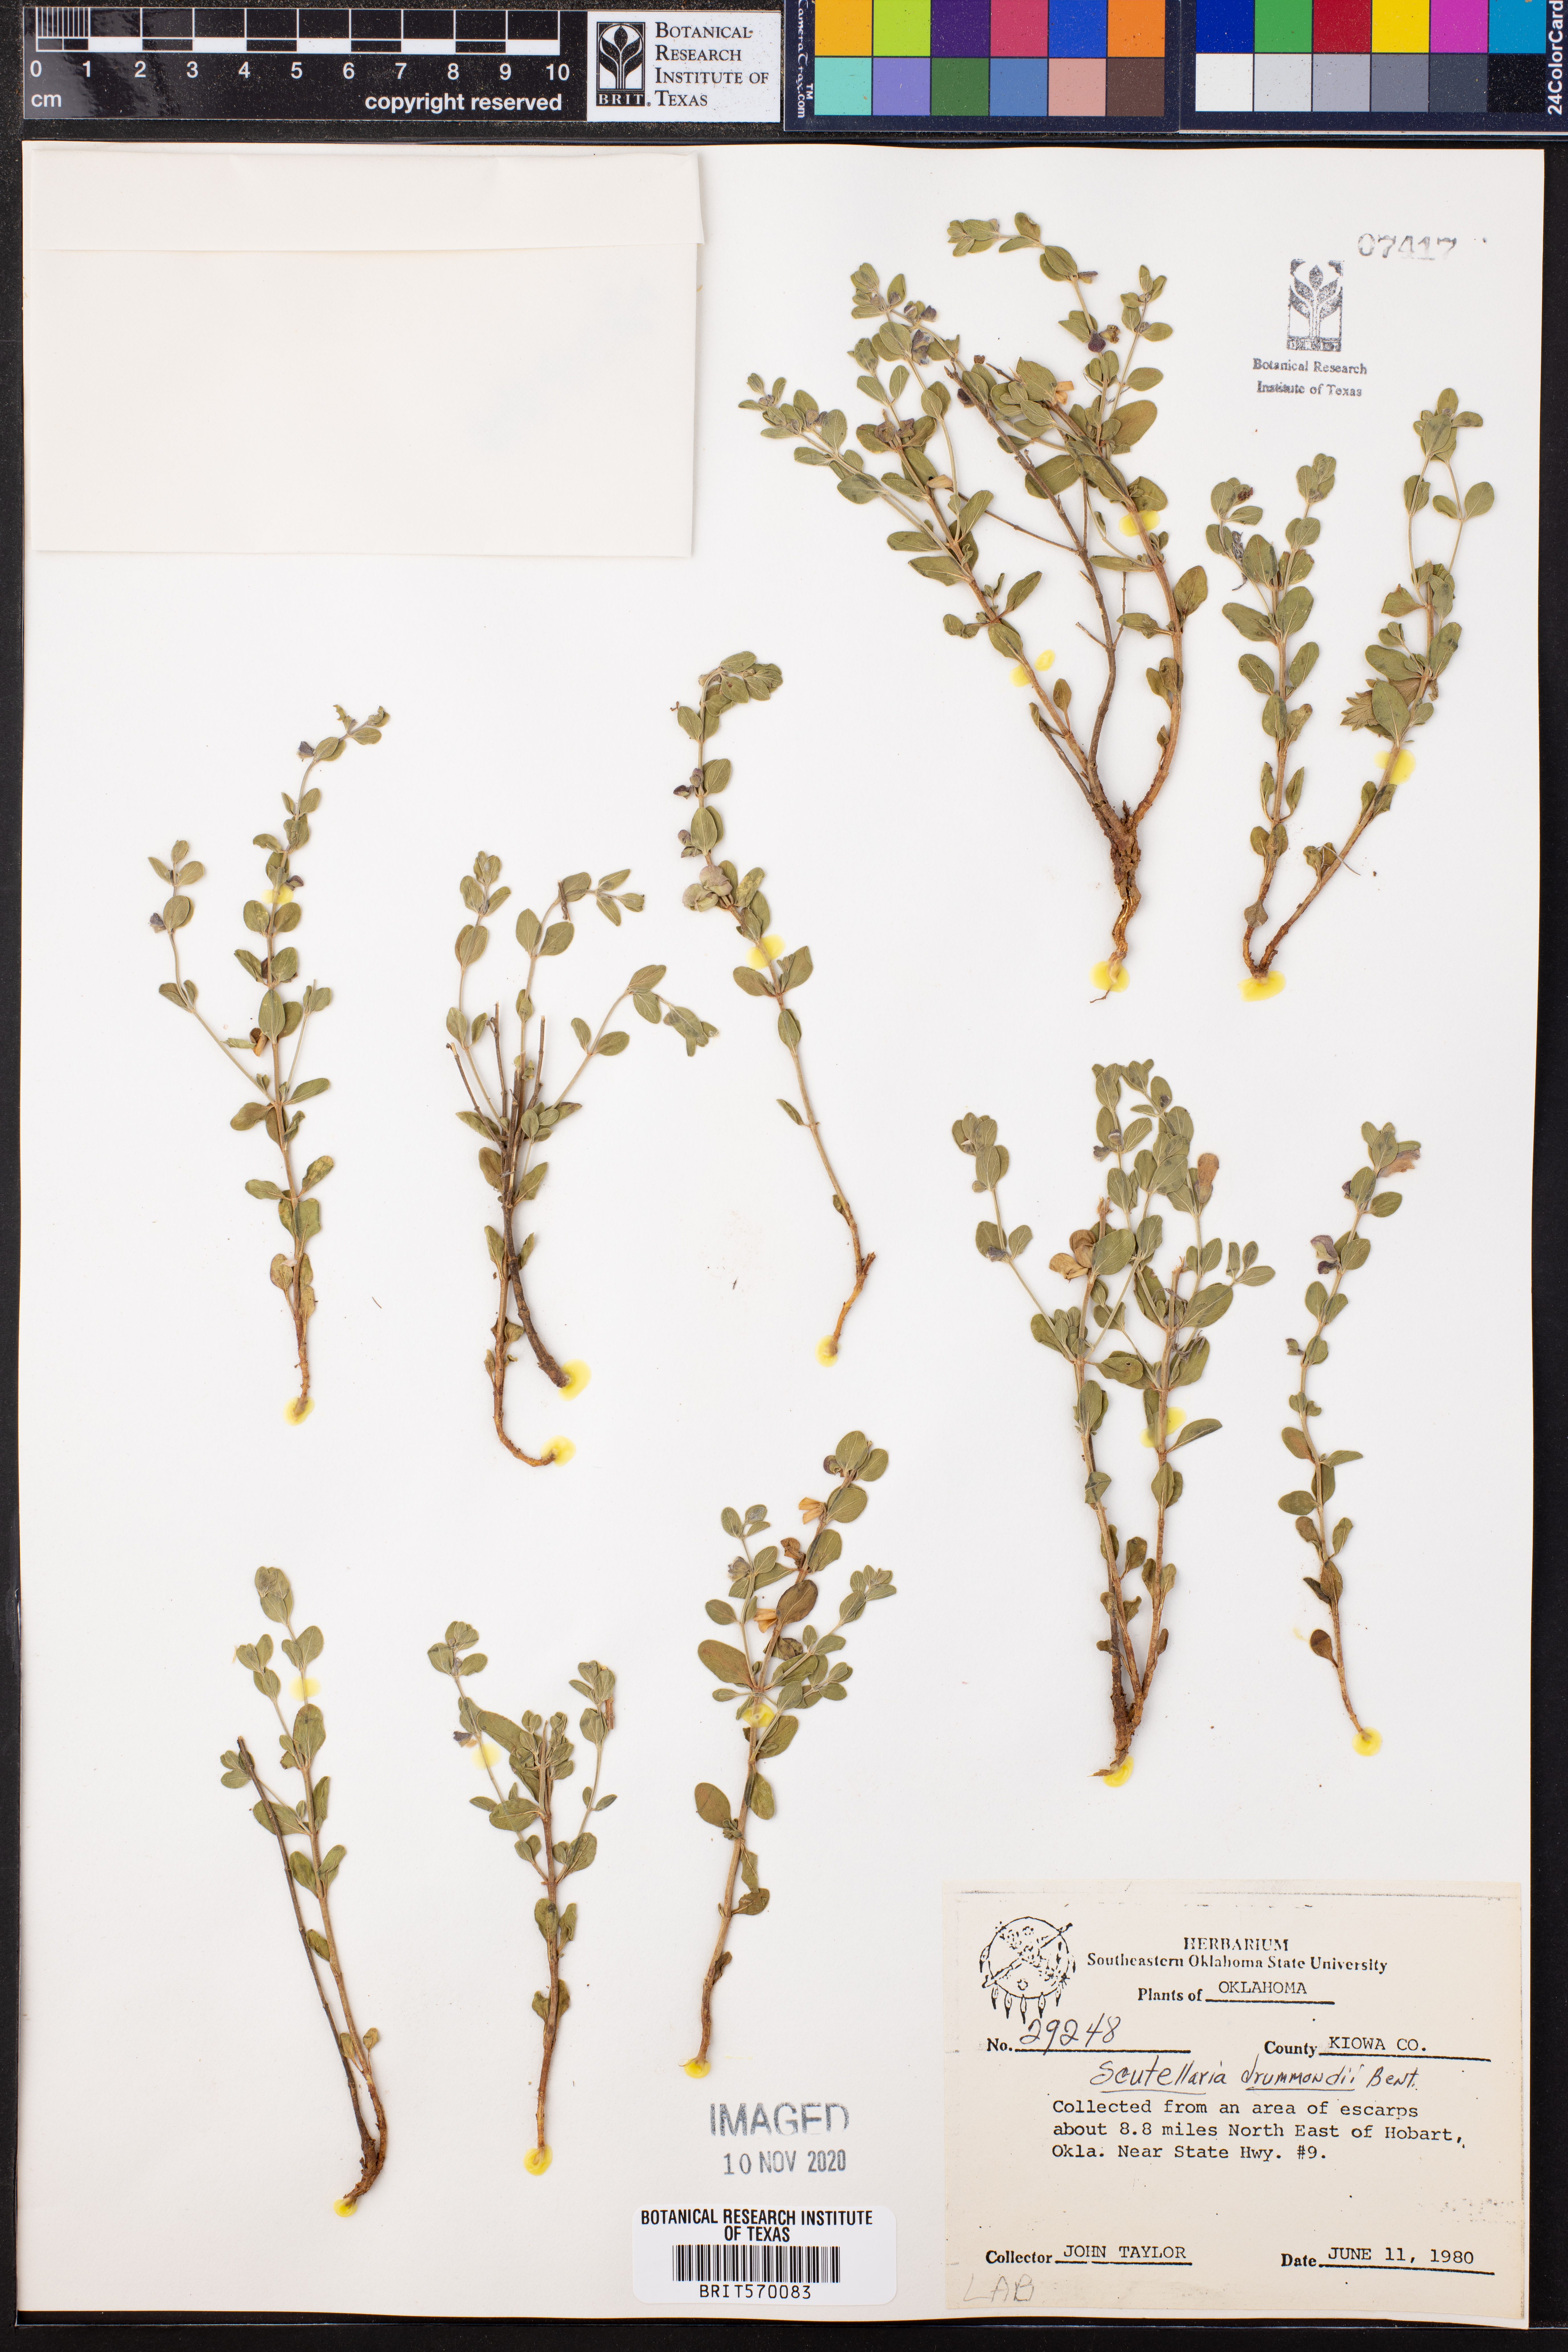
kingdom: Plantae
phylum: Tracheophyta
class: Magnoliopsida
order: Lamiales
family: Lamiaceae
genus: Scutellaria
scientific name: Scutellaria drummondii
